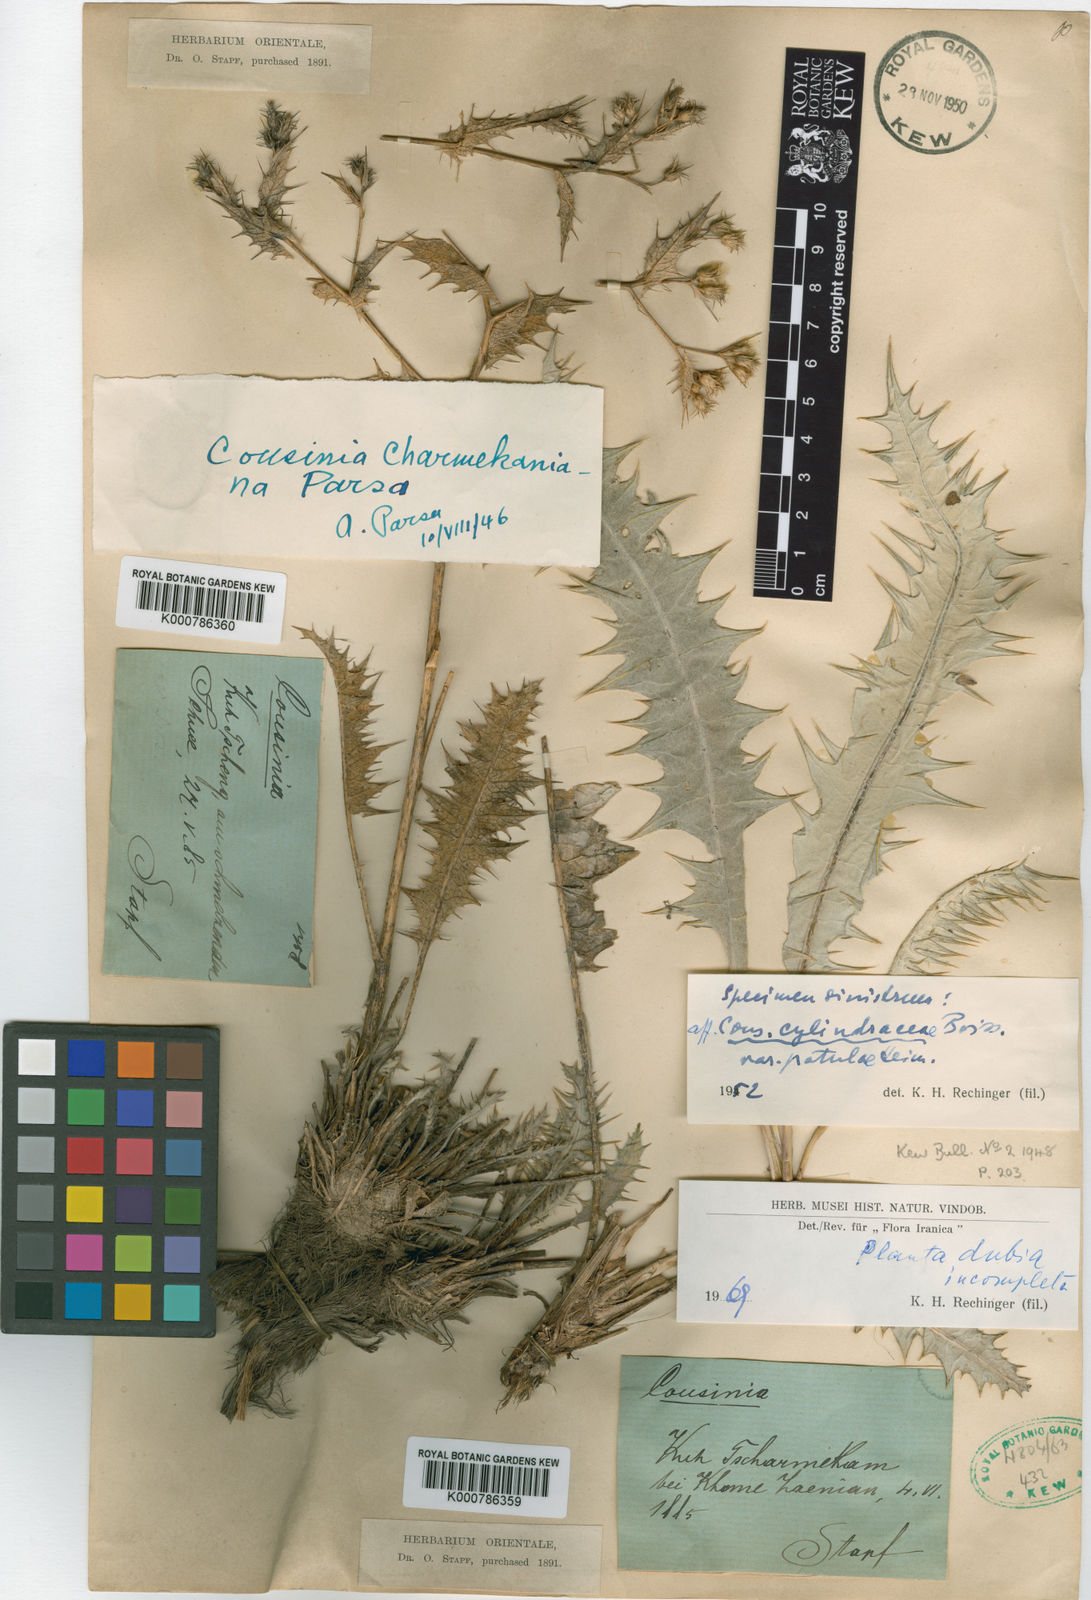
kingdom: Plantae
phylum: Tracheophyta
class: Magnoliopsida
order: Asterales
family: Asteraceae
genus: Cousinia
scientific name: Cousinia charmekaniana
